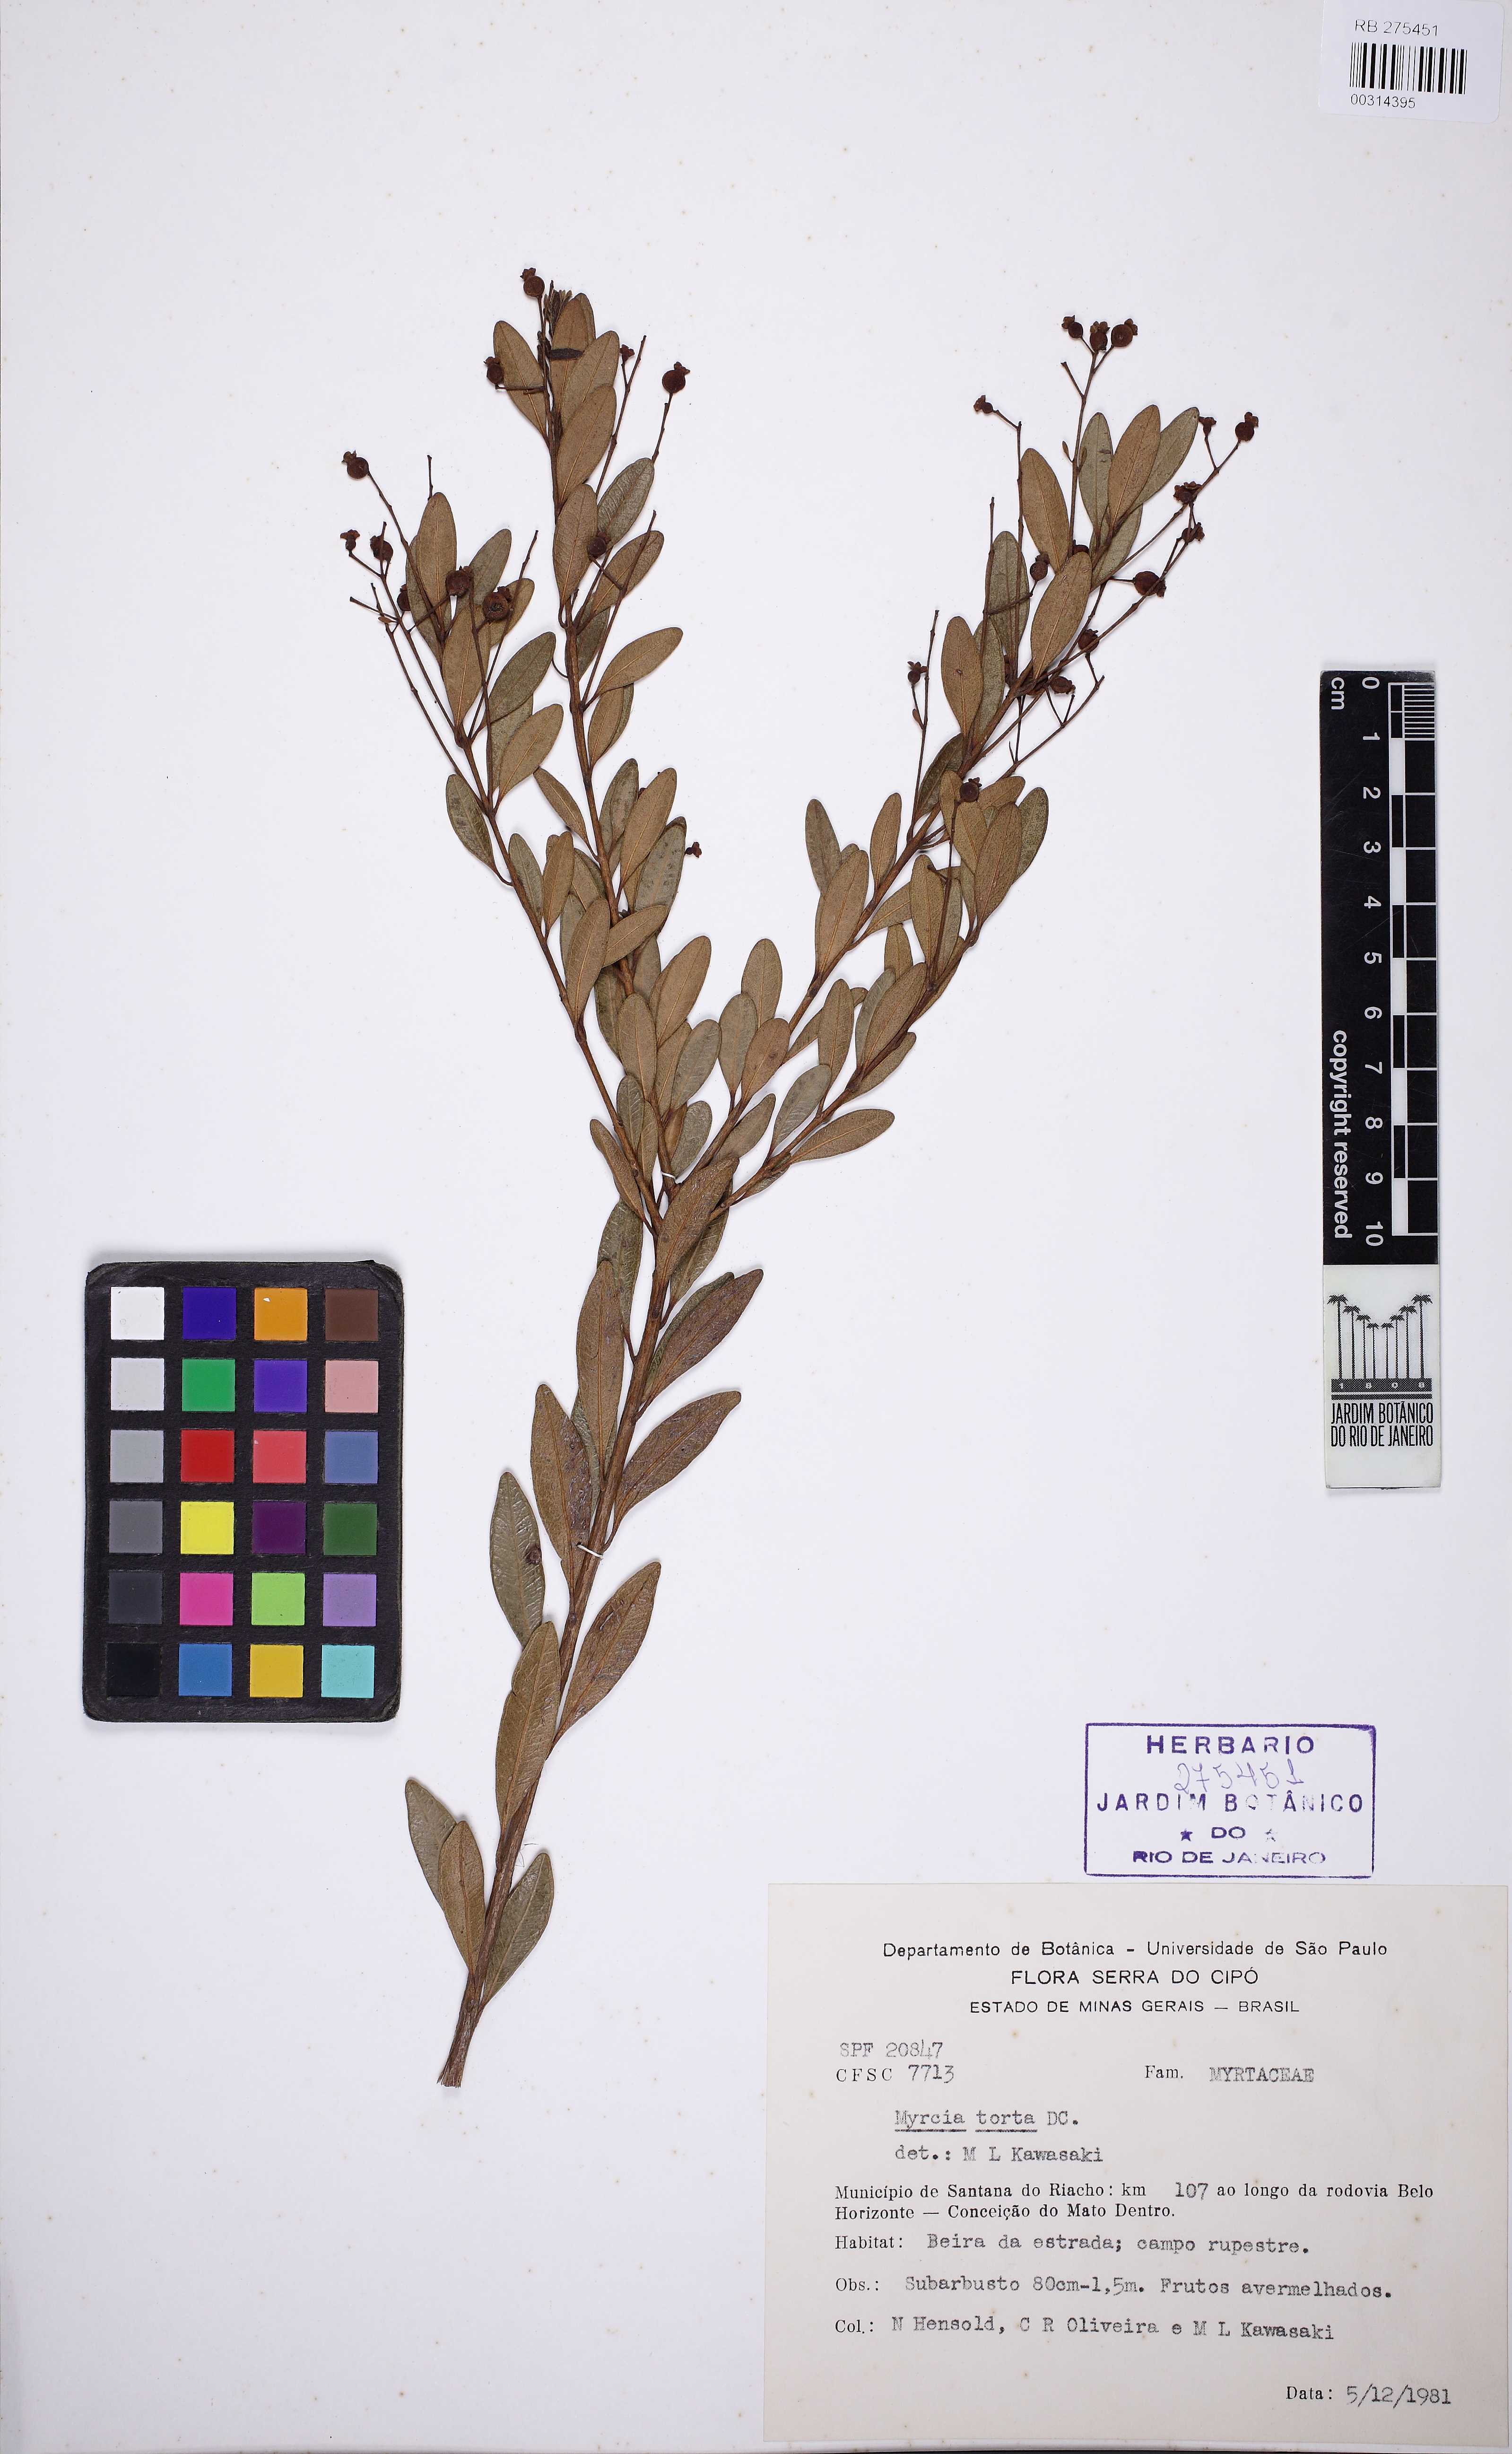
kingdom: Plantae
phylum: Tracheophyta
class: Magnoliopsida
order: Myrtales
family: Myrtaceae
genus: Myrcia
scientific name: Myrcia guianensis
